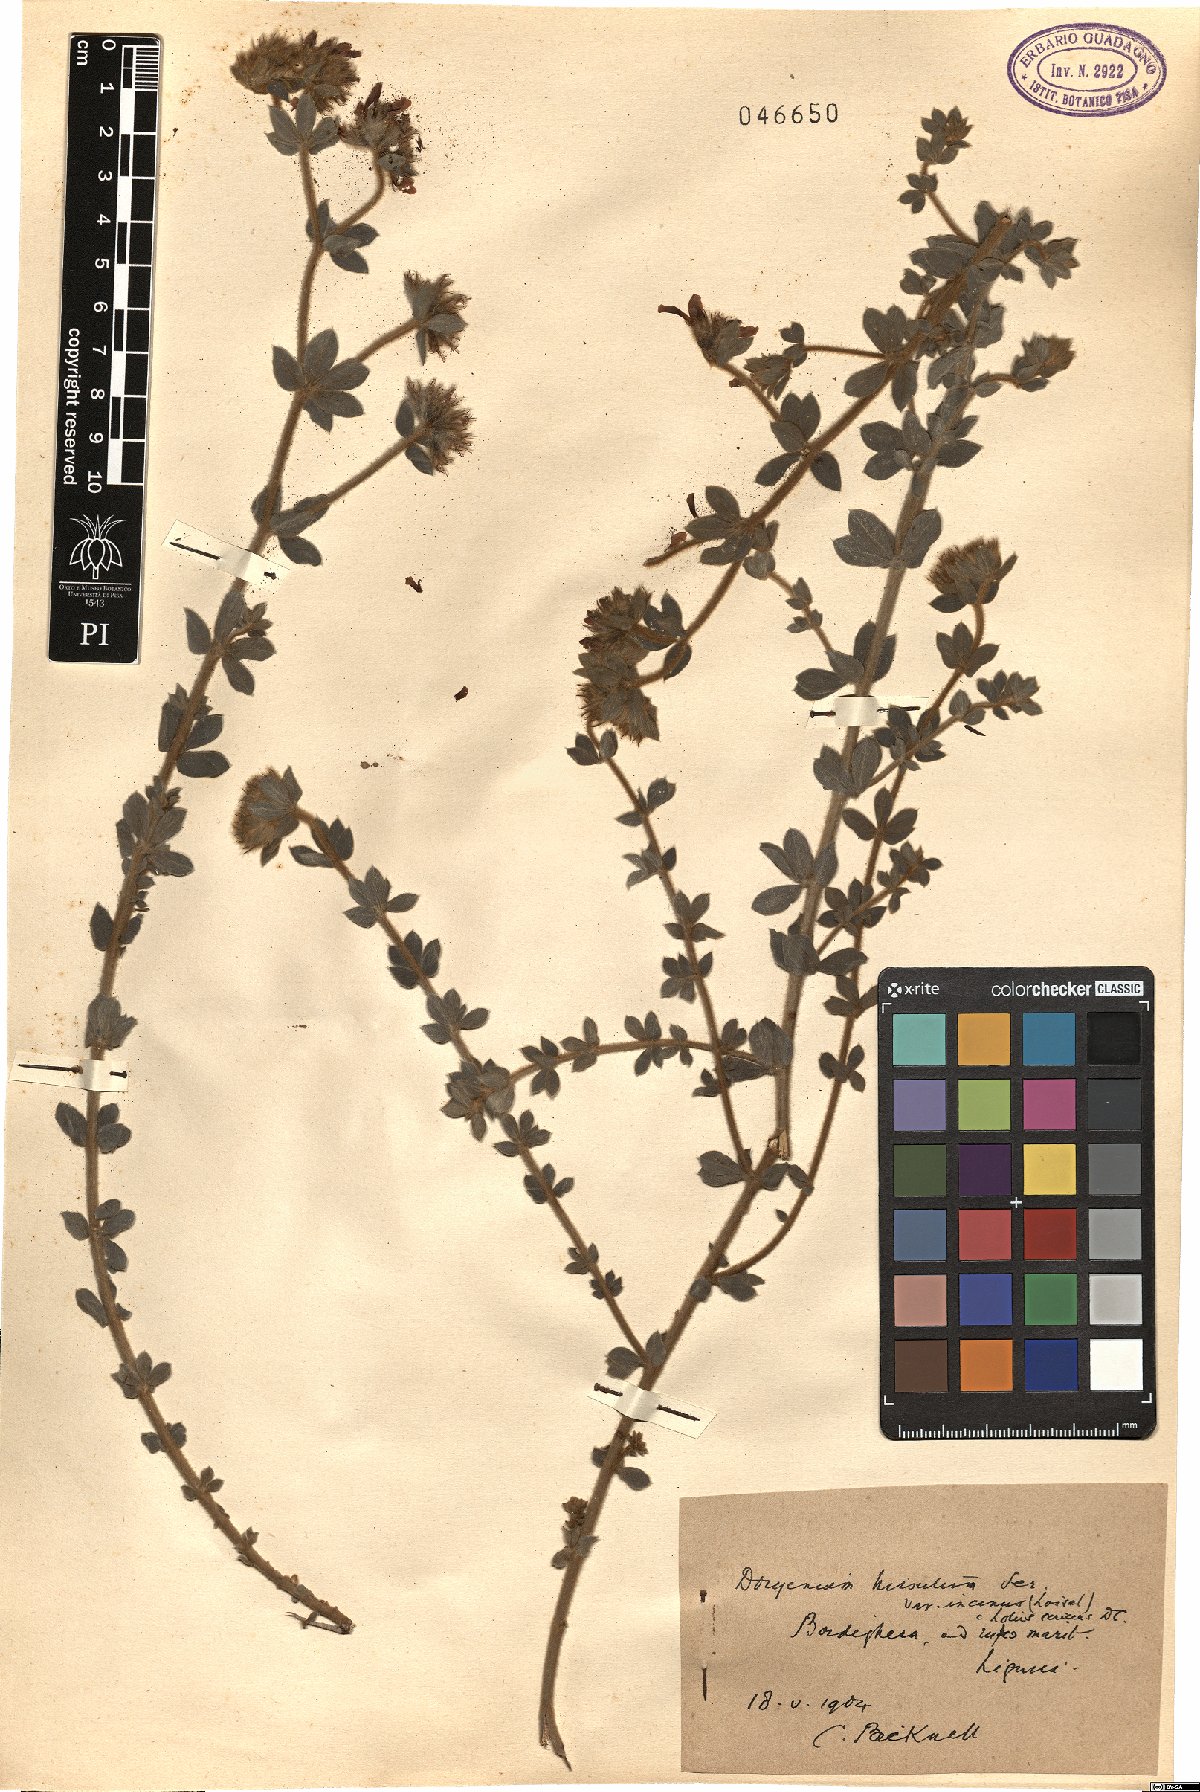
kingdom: Plantae
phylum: Tracheophyta
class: Magnoliopsida
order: Fabales
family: Fabaceae
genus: Lotus
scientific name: Lotus hirsutus
